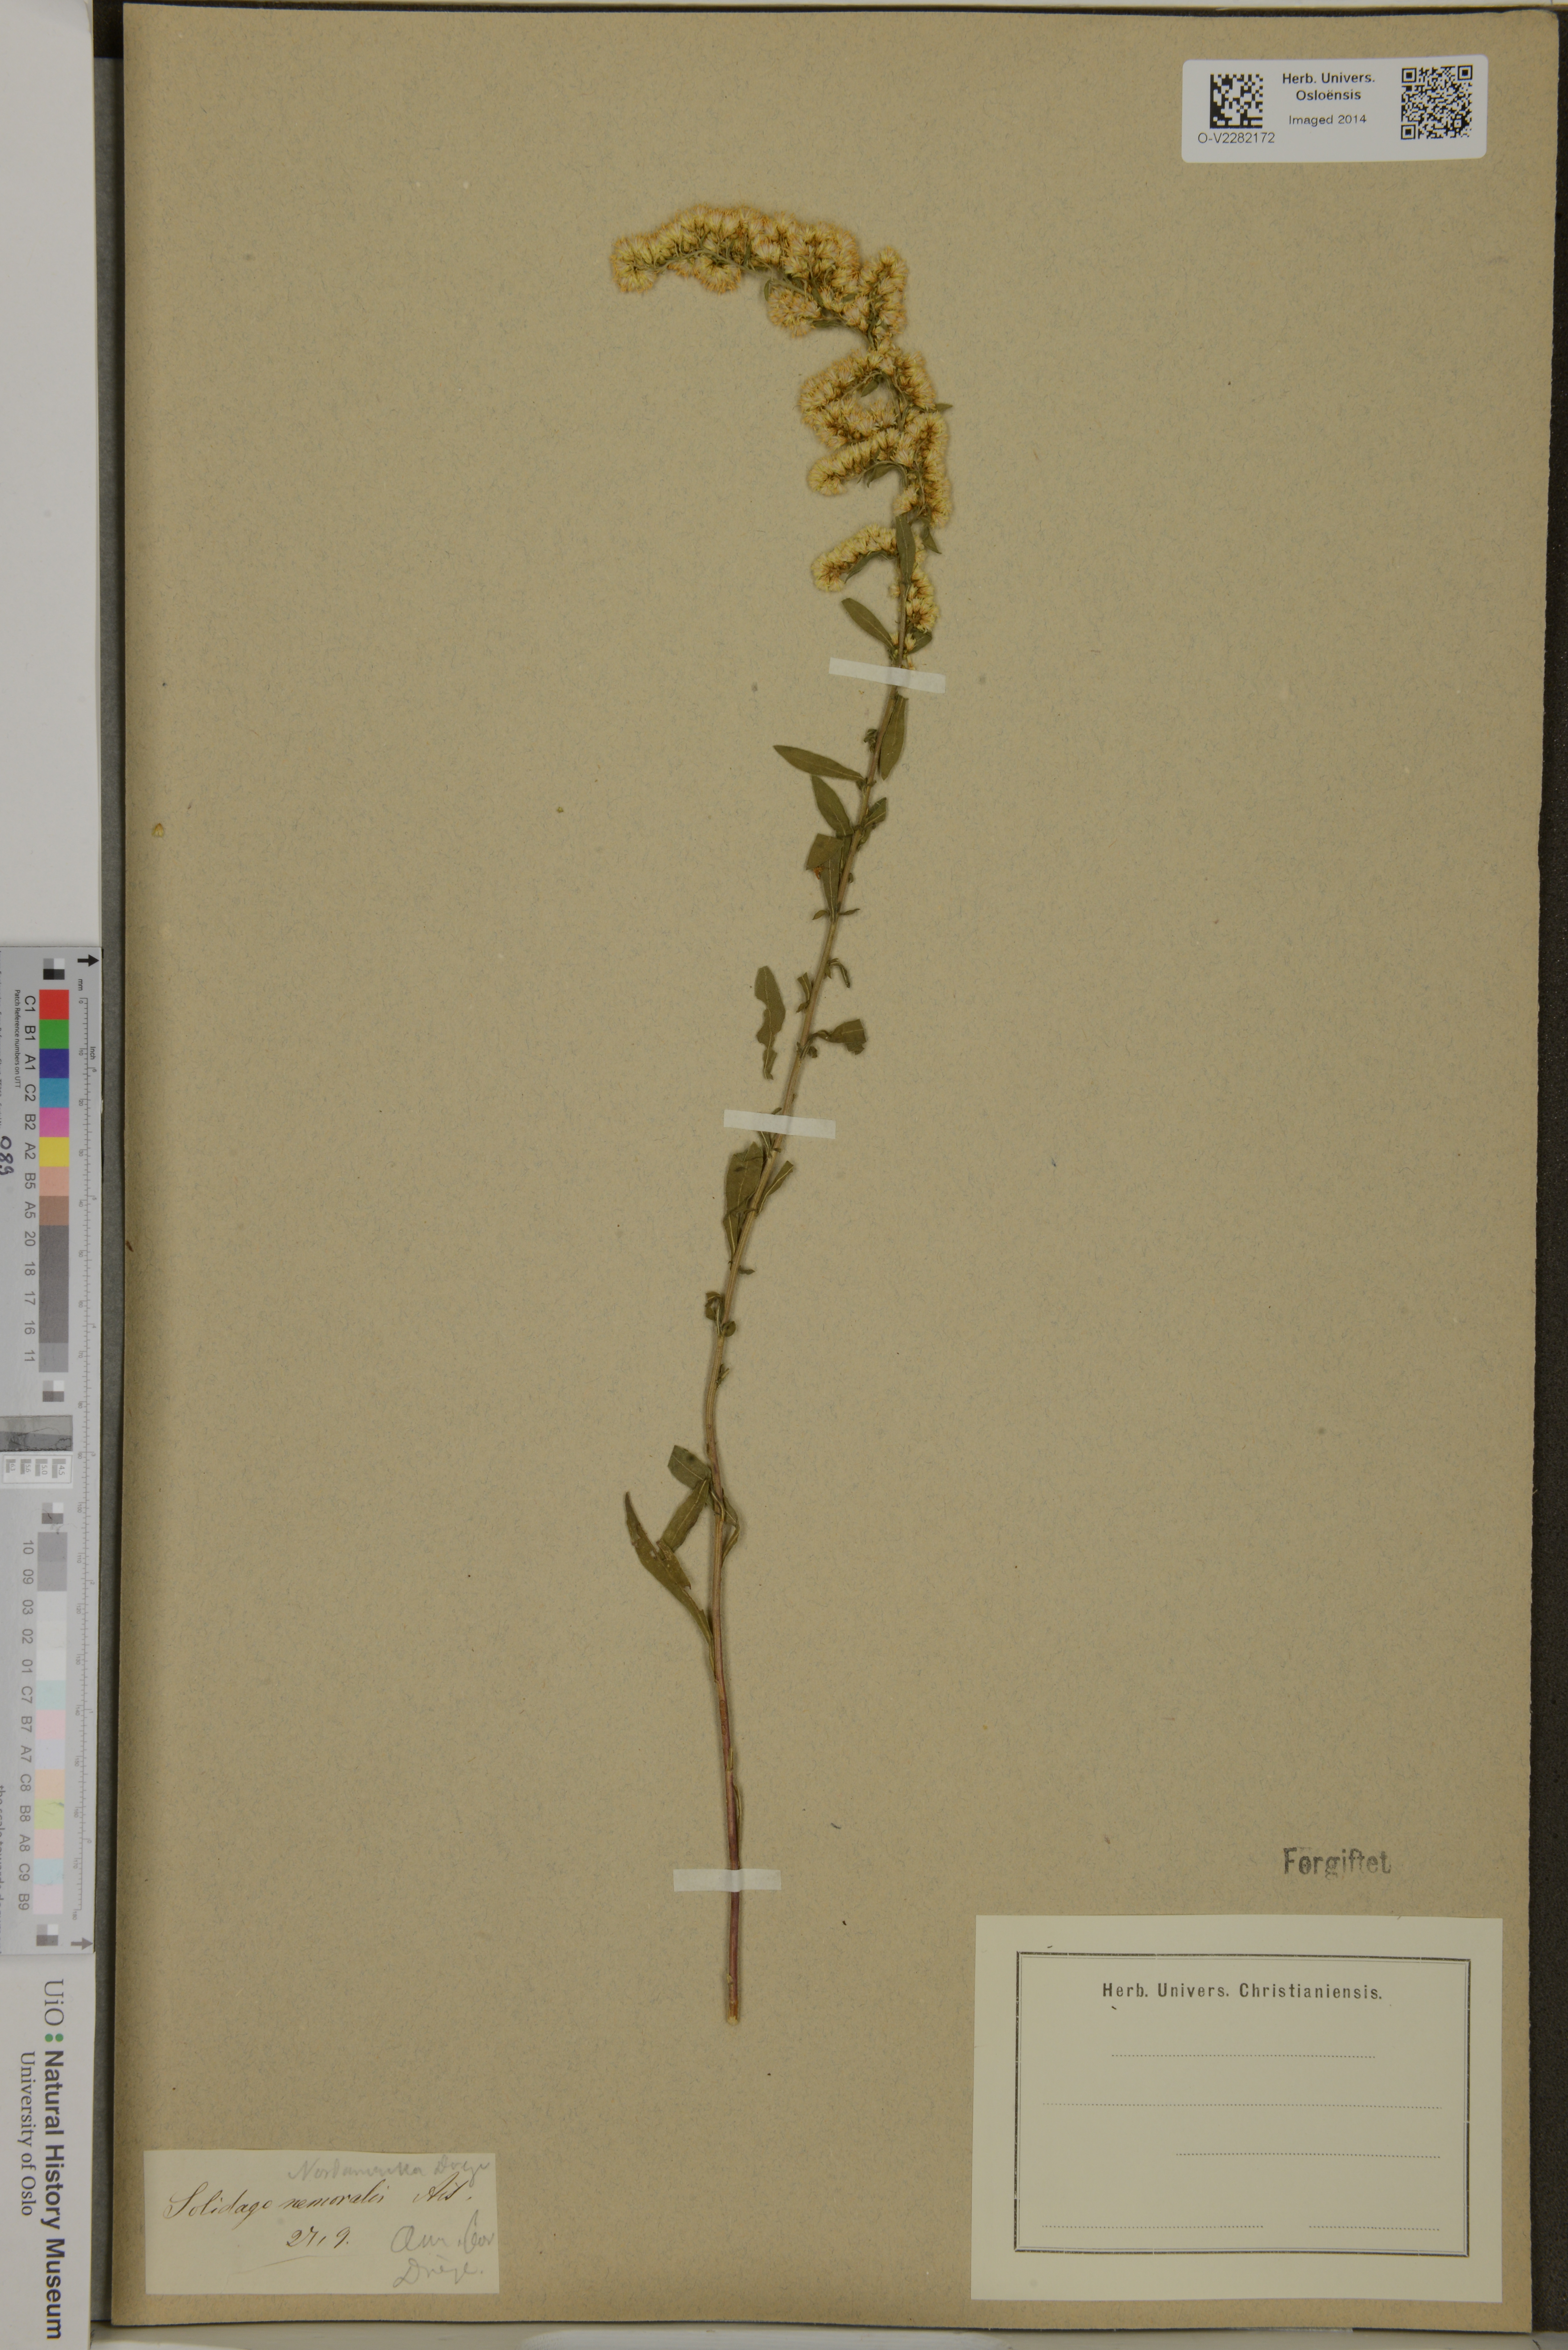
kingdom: Plantae
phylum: Tracheophyta
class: Magnoliopsida
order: Asterales
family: Asteraceae
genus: Solidago
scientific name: Solidago nemoralis
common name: Grey goldenrod
